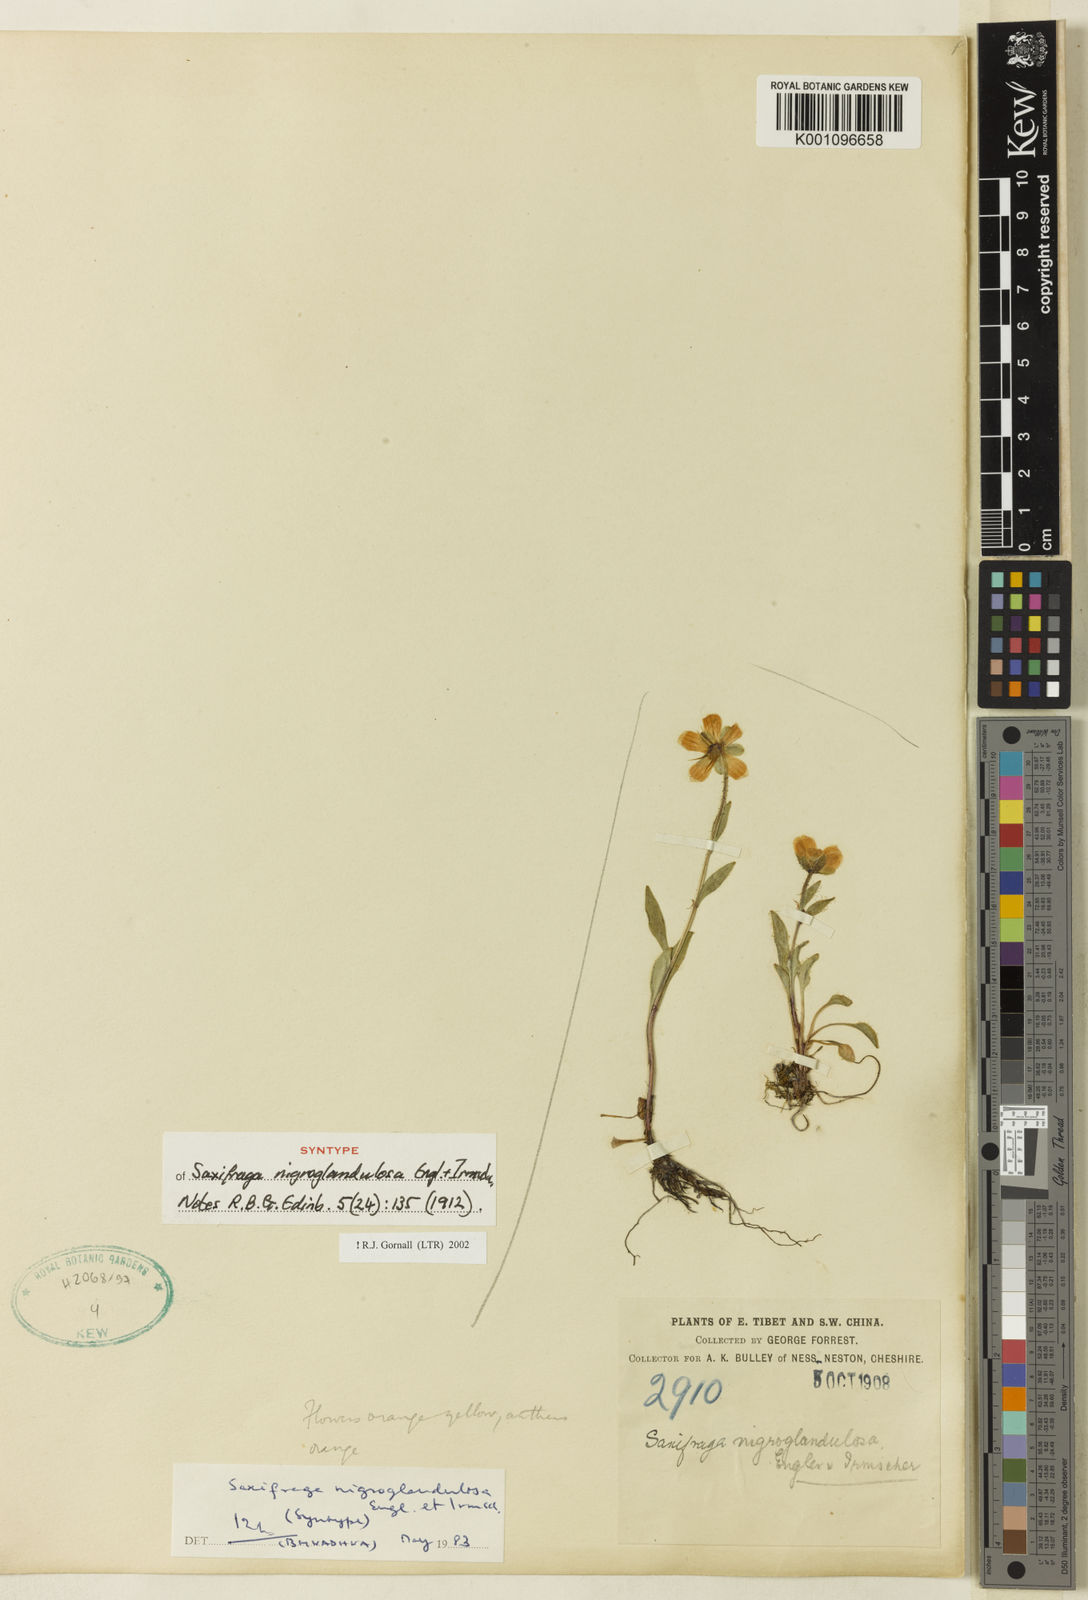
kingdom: Plantae
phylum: Tracheophyta
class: Magnoliopsida
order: Saxifragales
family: Saxifragaceae
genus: Saxifraga
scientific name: Saxifraga nigroglandulosa
